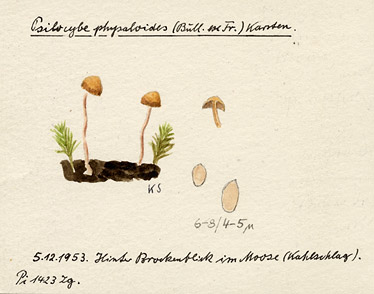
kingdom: Fungi
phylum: Basidiomycota
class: Agaricomycetes
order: Agaricales
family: Strophariaceae
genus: Deconica
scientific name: Deconica montana
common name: Mountain moss deconica
